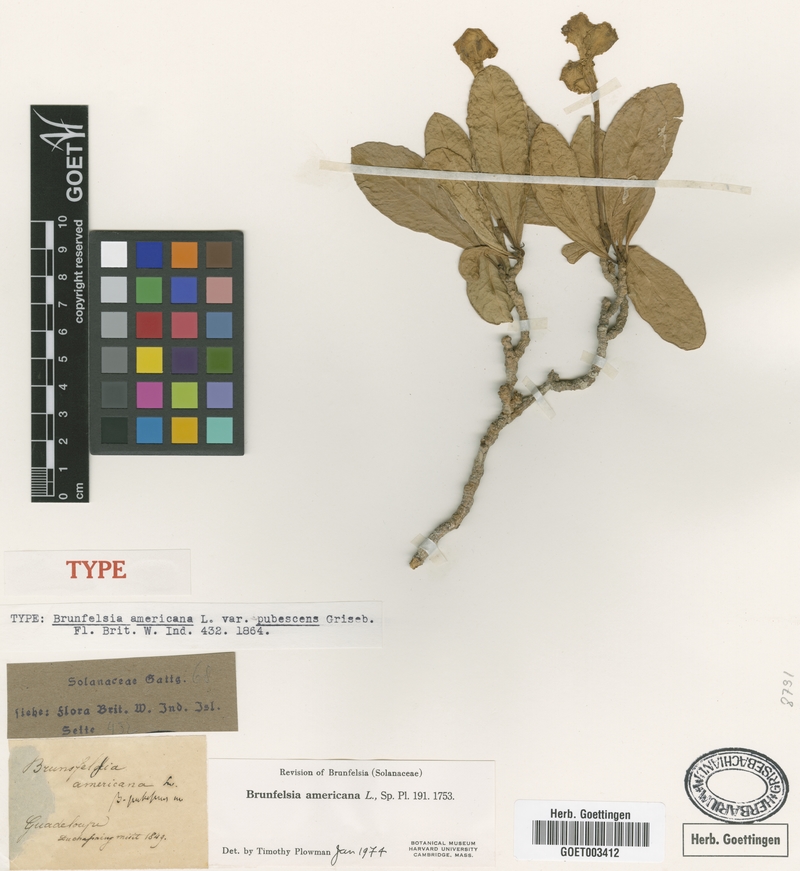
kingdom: Plantae
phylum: Tracheophyta
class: Magnoliopsida
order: Solanales
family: Solanaceae
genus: Brunfelsia
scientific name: Brunfelsia americana
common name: Lady-of-the-night
